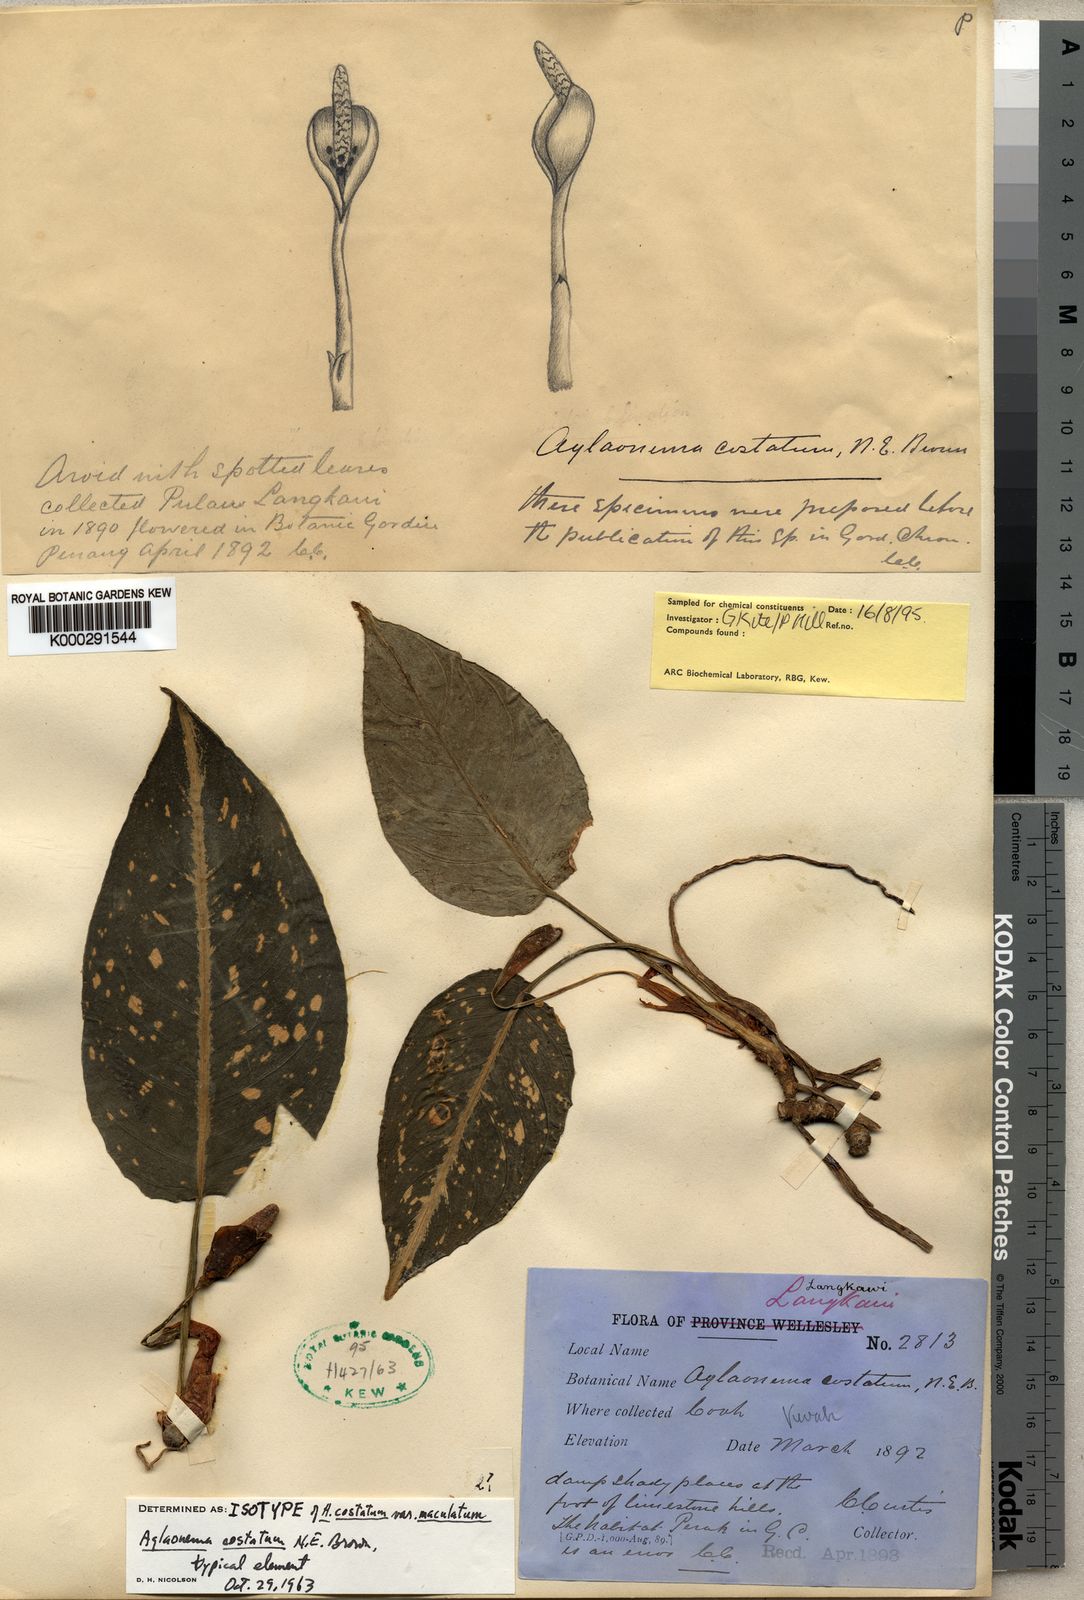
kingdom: Plantae
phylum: Tracheophyta
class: Liliopsida
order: Alismatales
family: Araceae
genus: Aglaonema
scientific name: Aglaonema costatum
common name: Chinese evergreen
